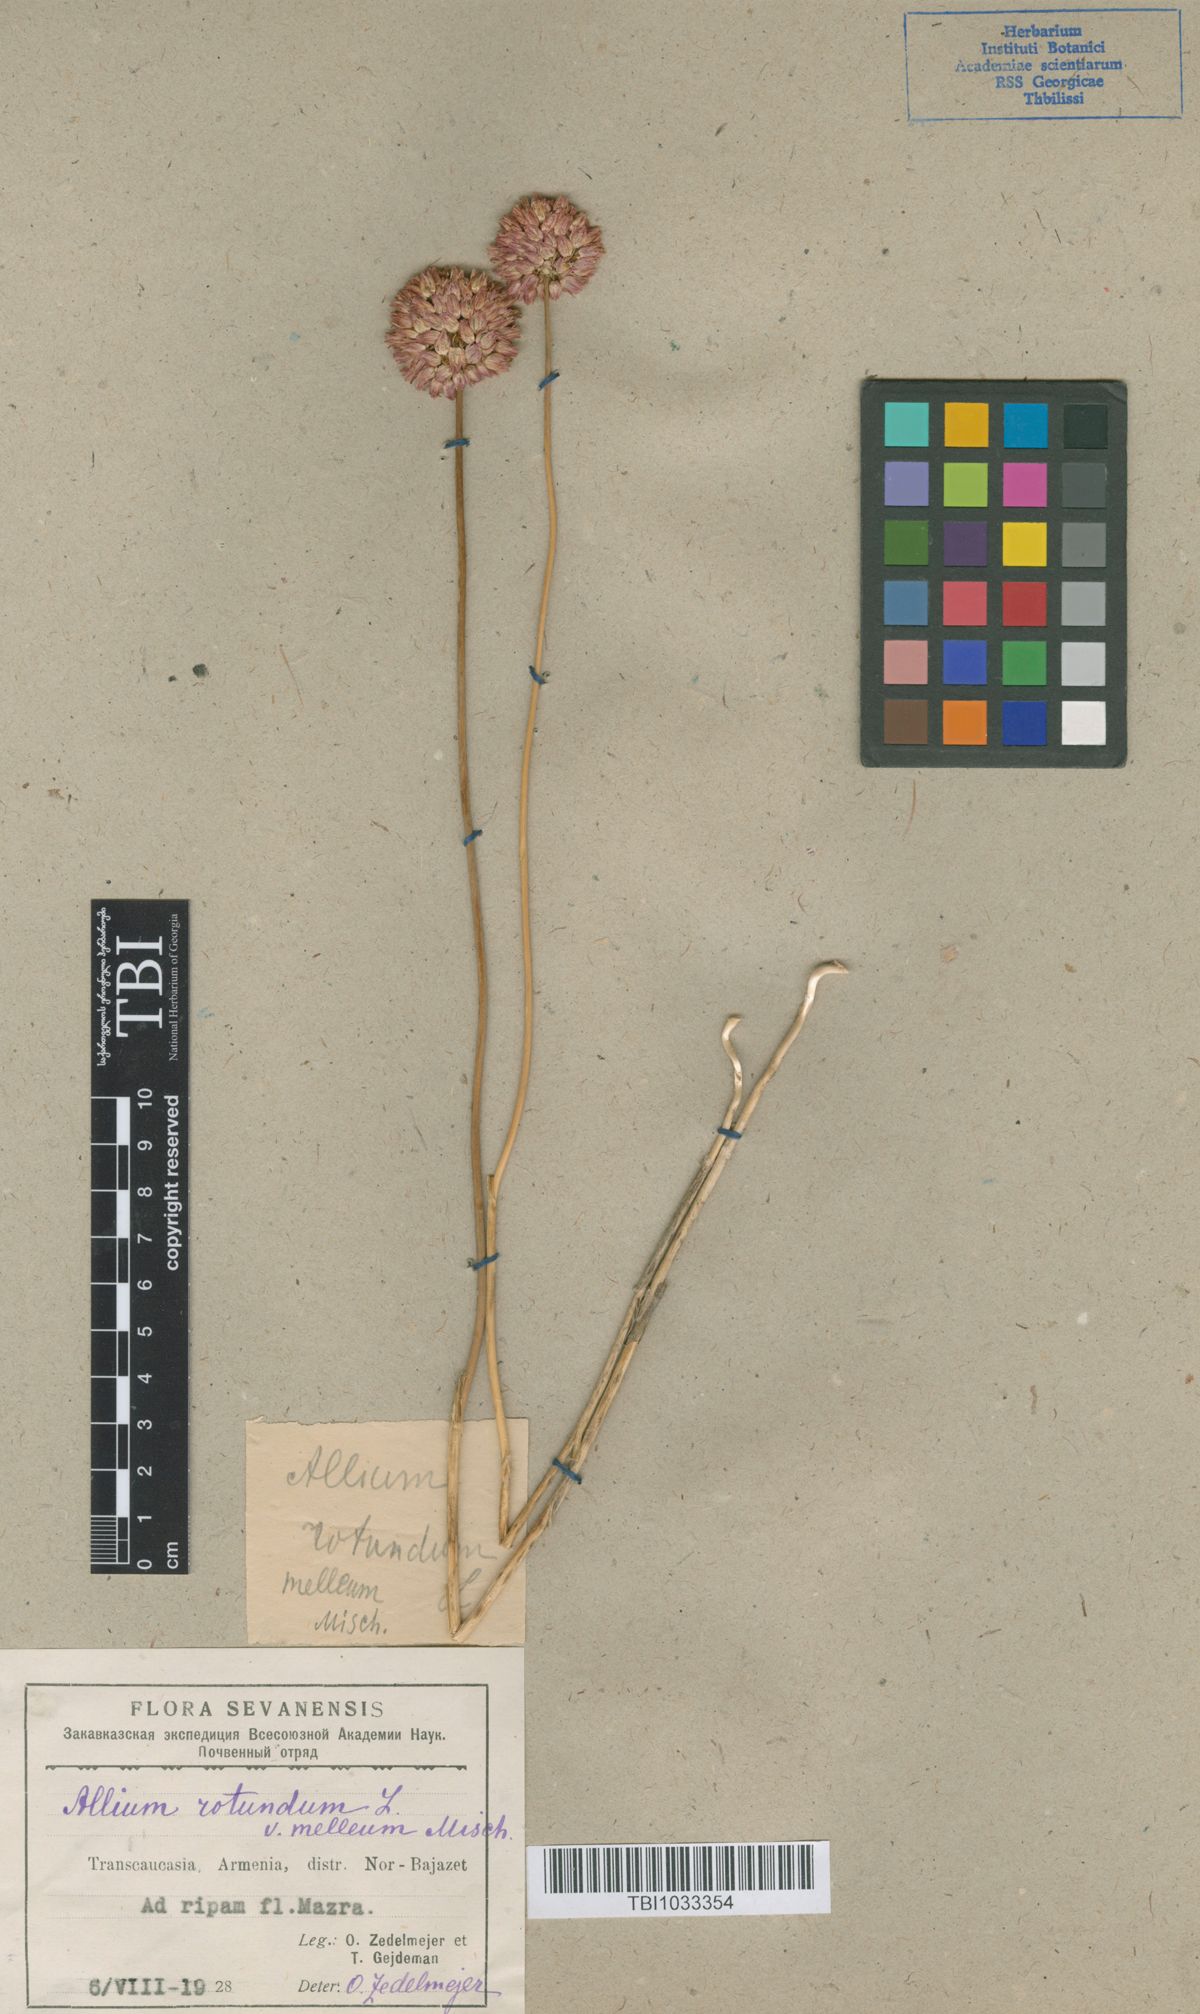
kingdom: Plantae
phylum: Tracheophyta
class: Liliopsida
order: Asparagales
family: Amaryllidaceae
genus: Allium
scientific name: Allium rotundum
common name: Sand leek
